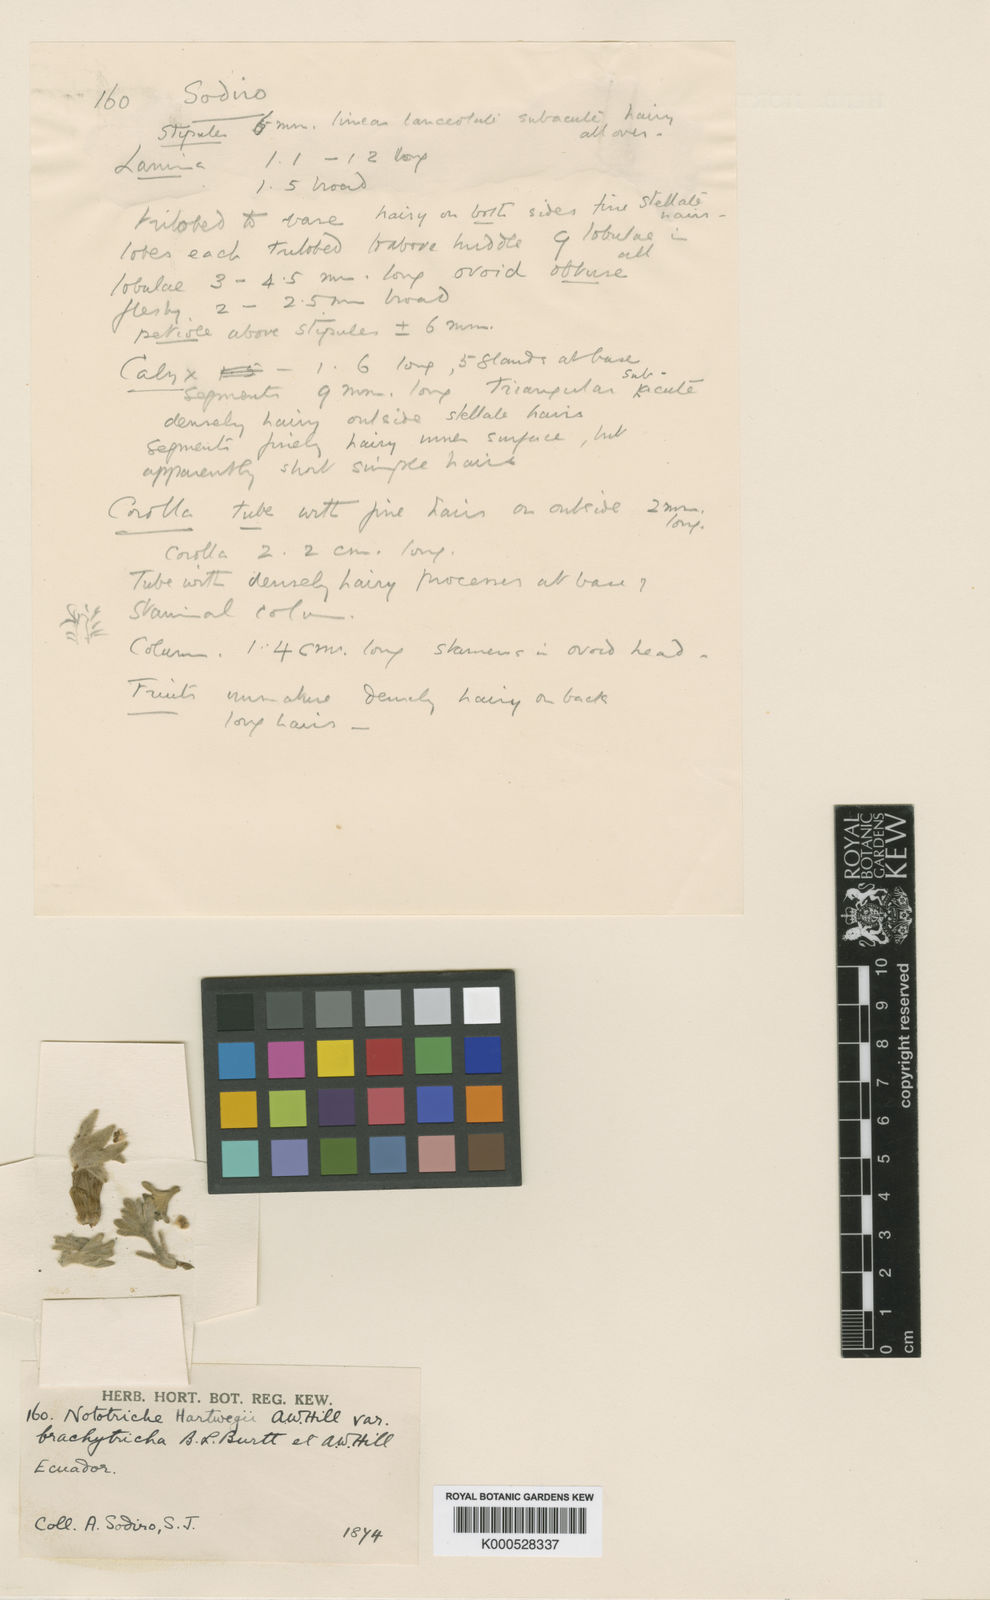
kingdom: Plantae
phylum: Tracheophyta
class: Magnoliopsida
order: Malvales
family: Malvaceae
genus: Nototriche
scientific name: Nototriche jamesonii
